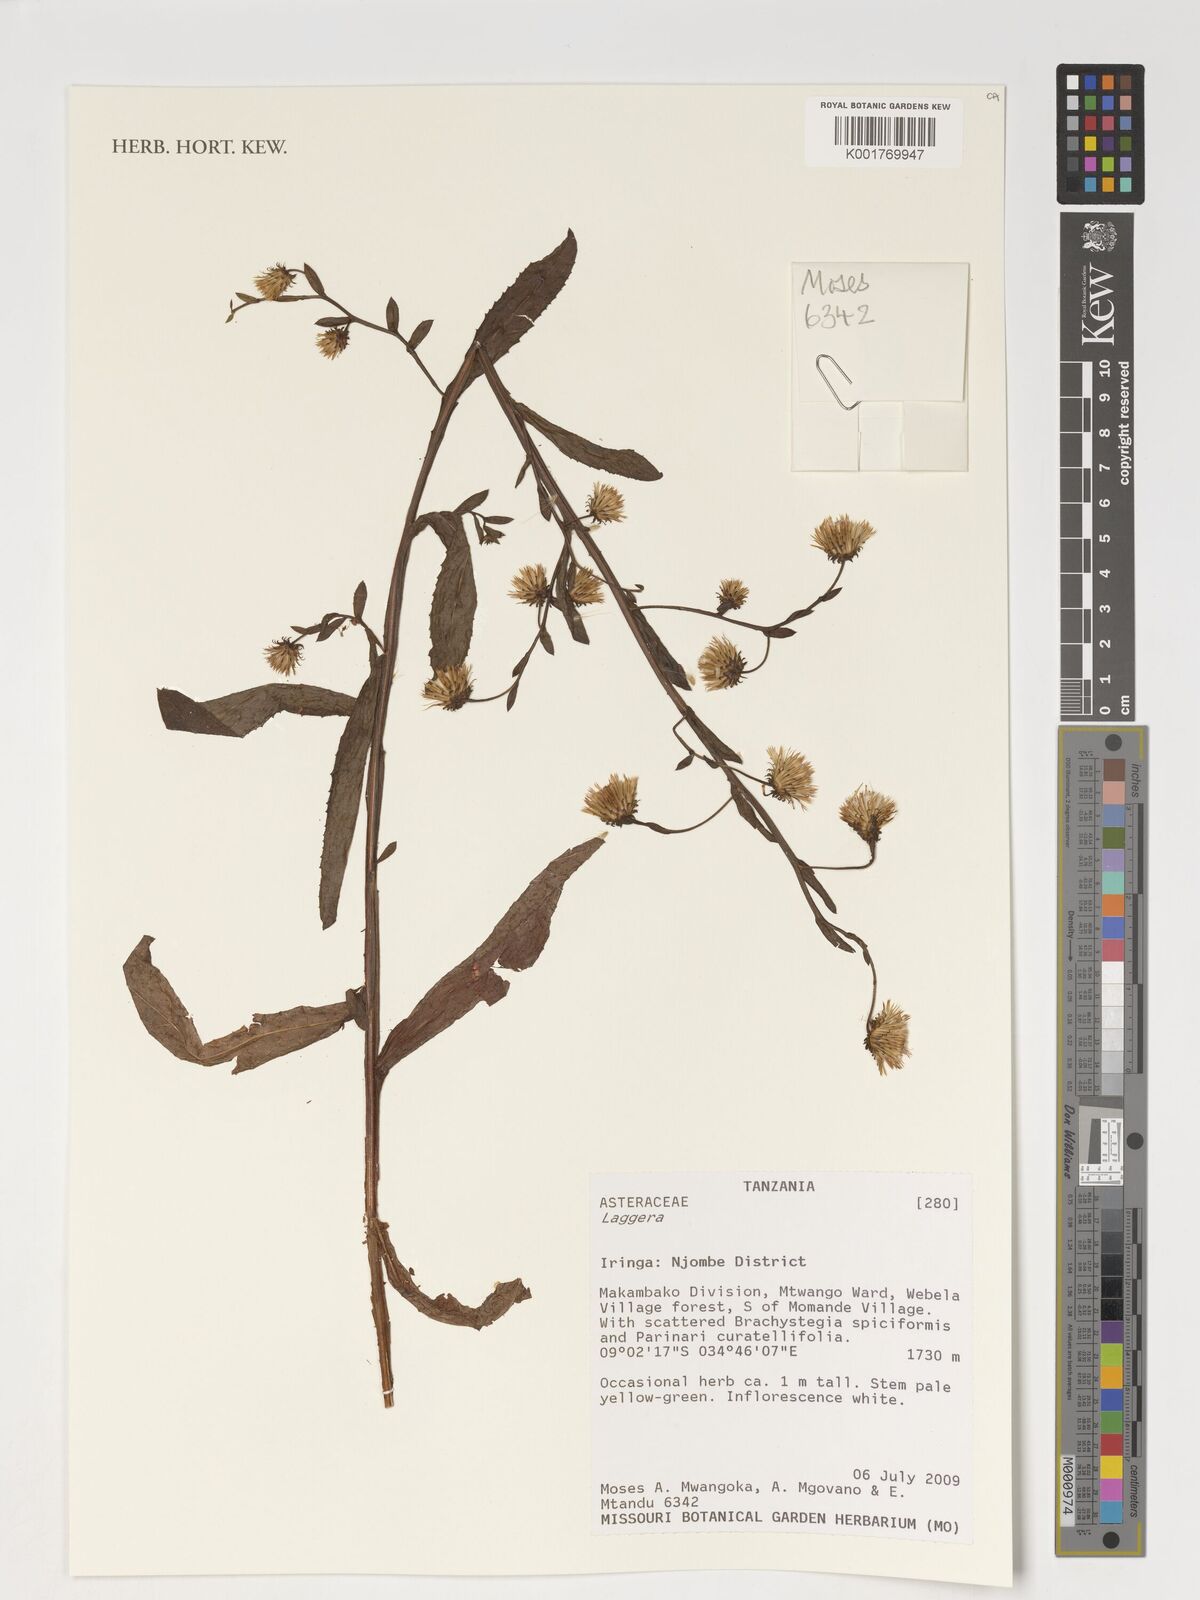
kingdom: Plantae
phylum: Tracheophyta
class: Magnoliopsida
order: Asterales
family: Asteraceae
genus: Laggera
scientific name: Laggera
